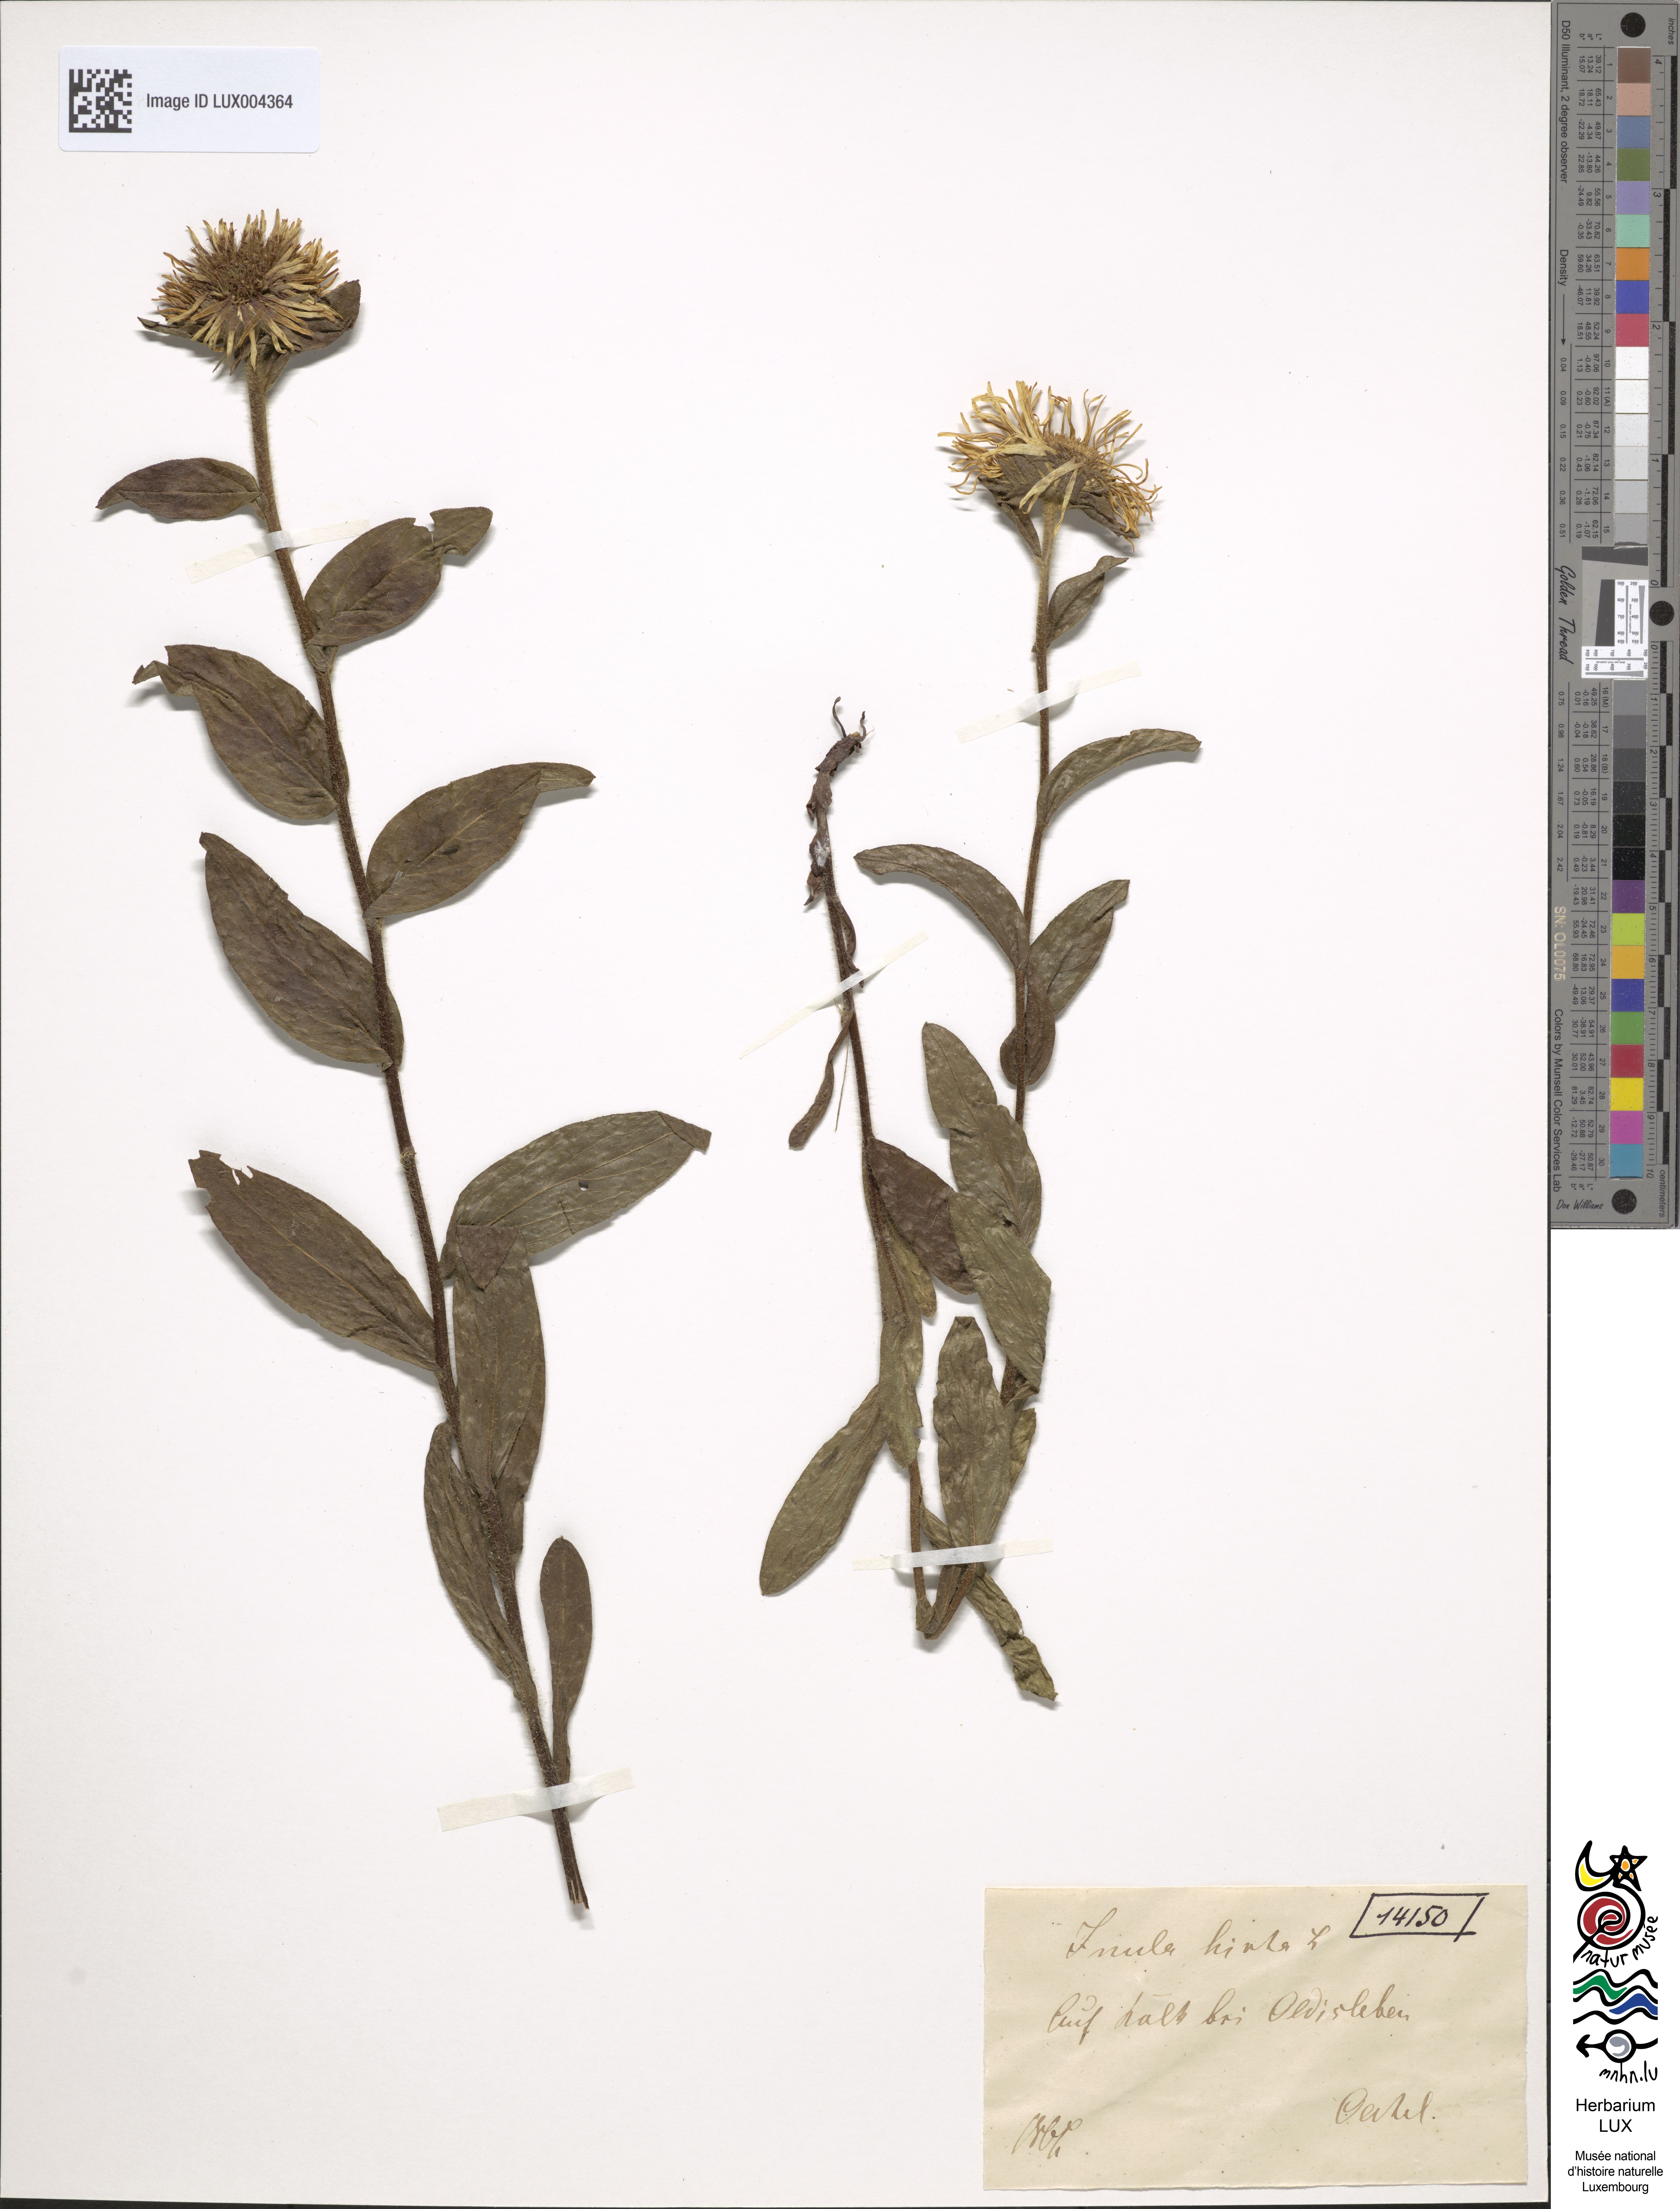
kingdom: Plantae
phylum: Tracheophyta
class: Magnoliopsida
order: Asterales
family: Asteraceae
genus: Pentanema
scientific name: Pentanema hirtum
